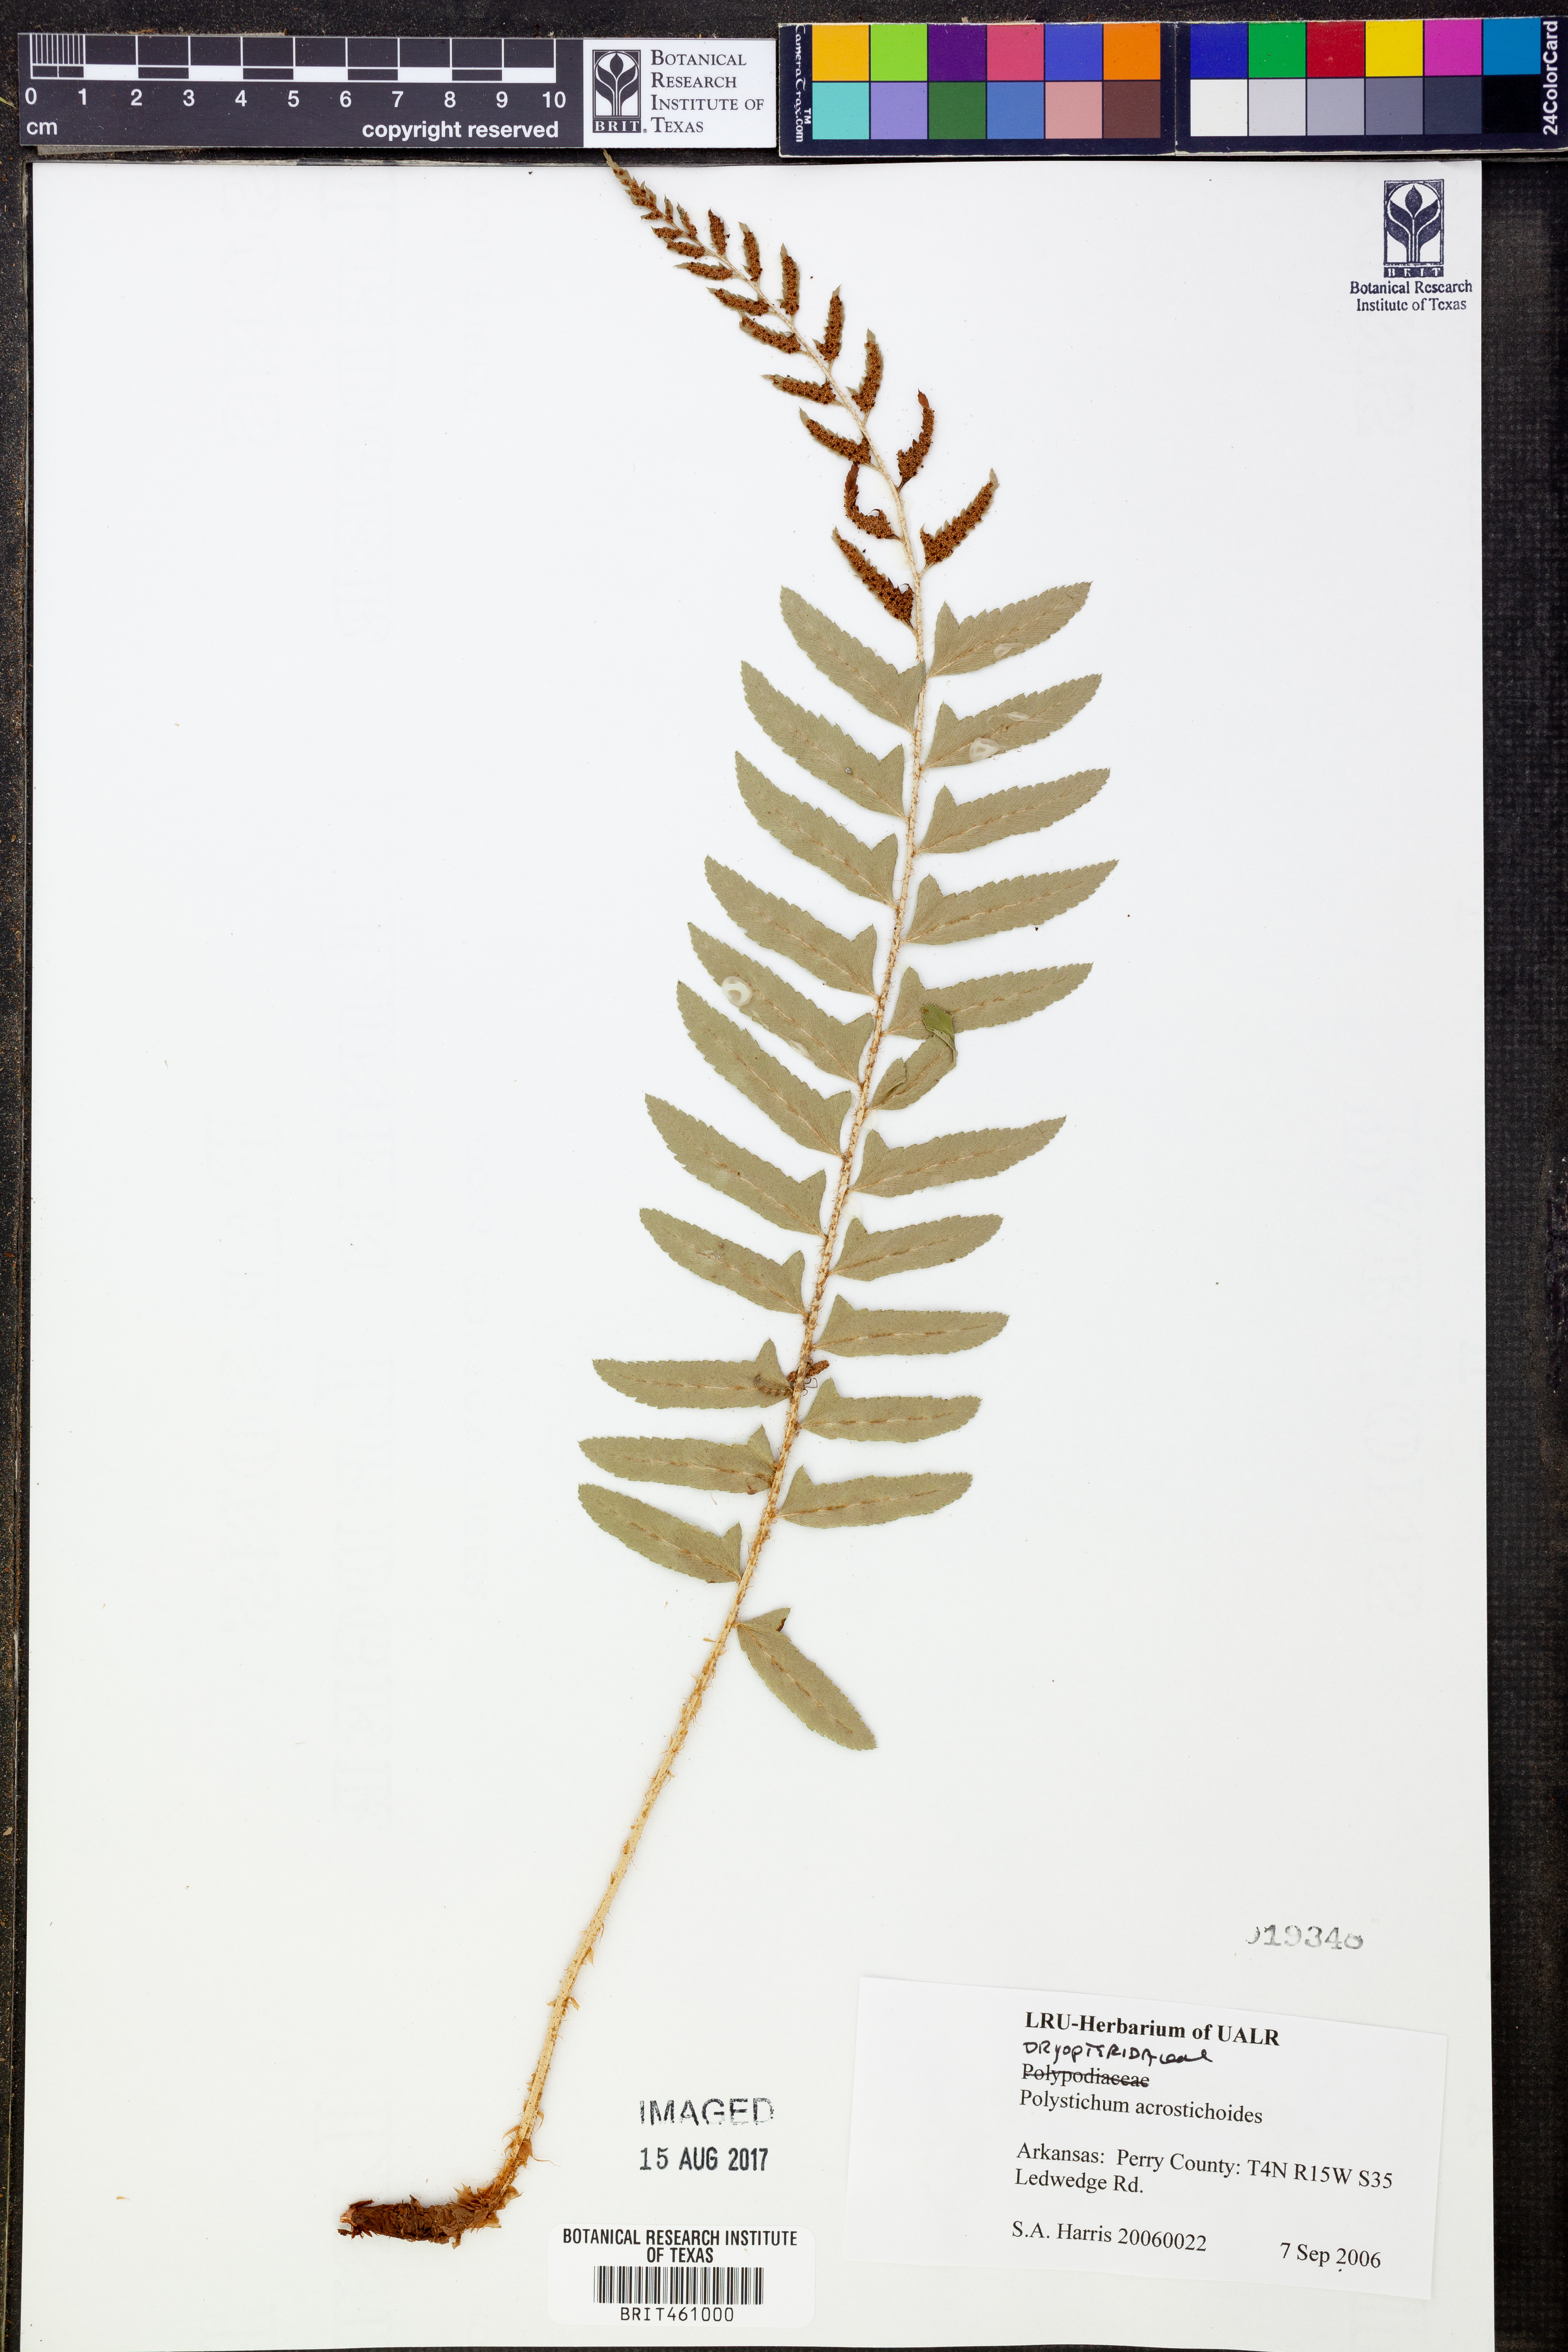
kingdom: Plantae
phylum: Tracheophyta
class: Polypodiopsida
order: Polypodiales
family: Dryopteridaceae
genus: Polystichum
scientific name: Polystichum acrostichoides
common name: Christmas fern
